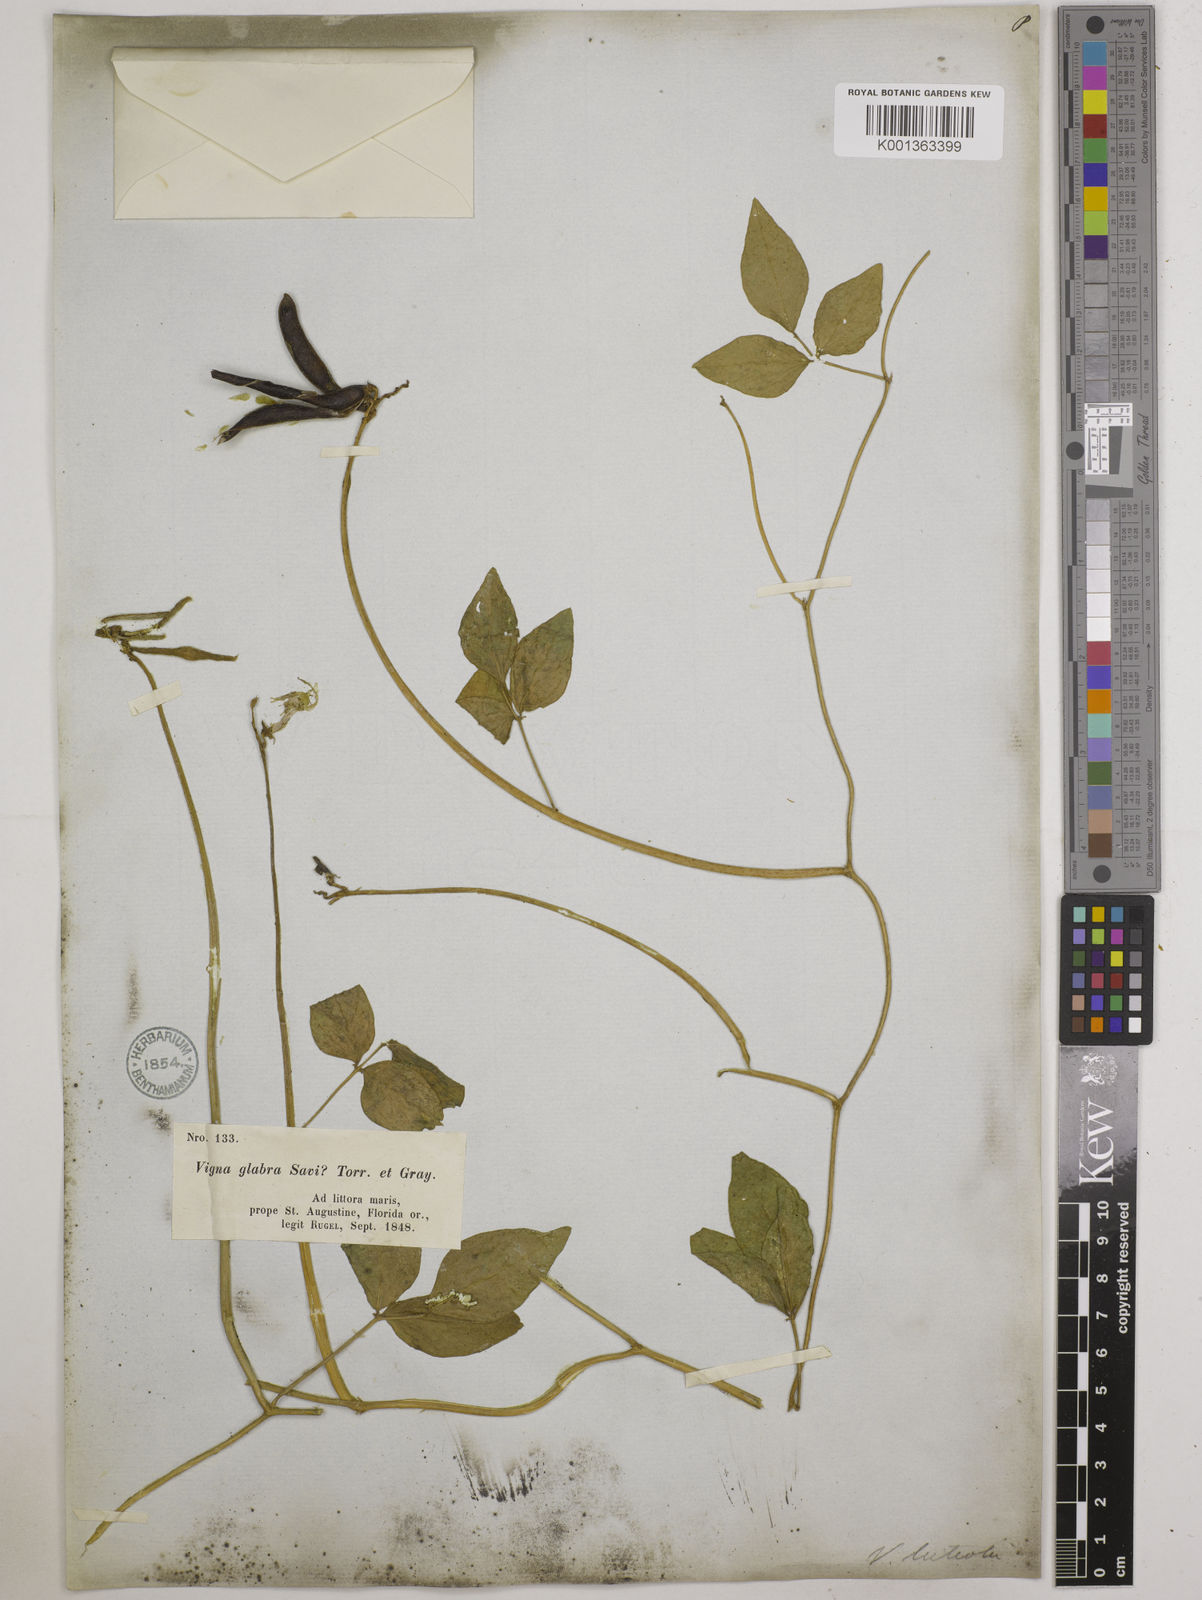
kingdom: Plantae
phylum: Tracheophyta
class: Magnoliopsida
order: Fabales
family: Fabaceae
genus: Vigna
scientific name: Vigna luteola
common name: Hairypod cowpea
